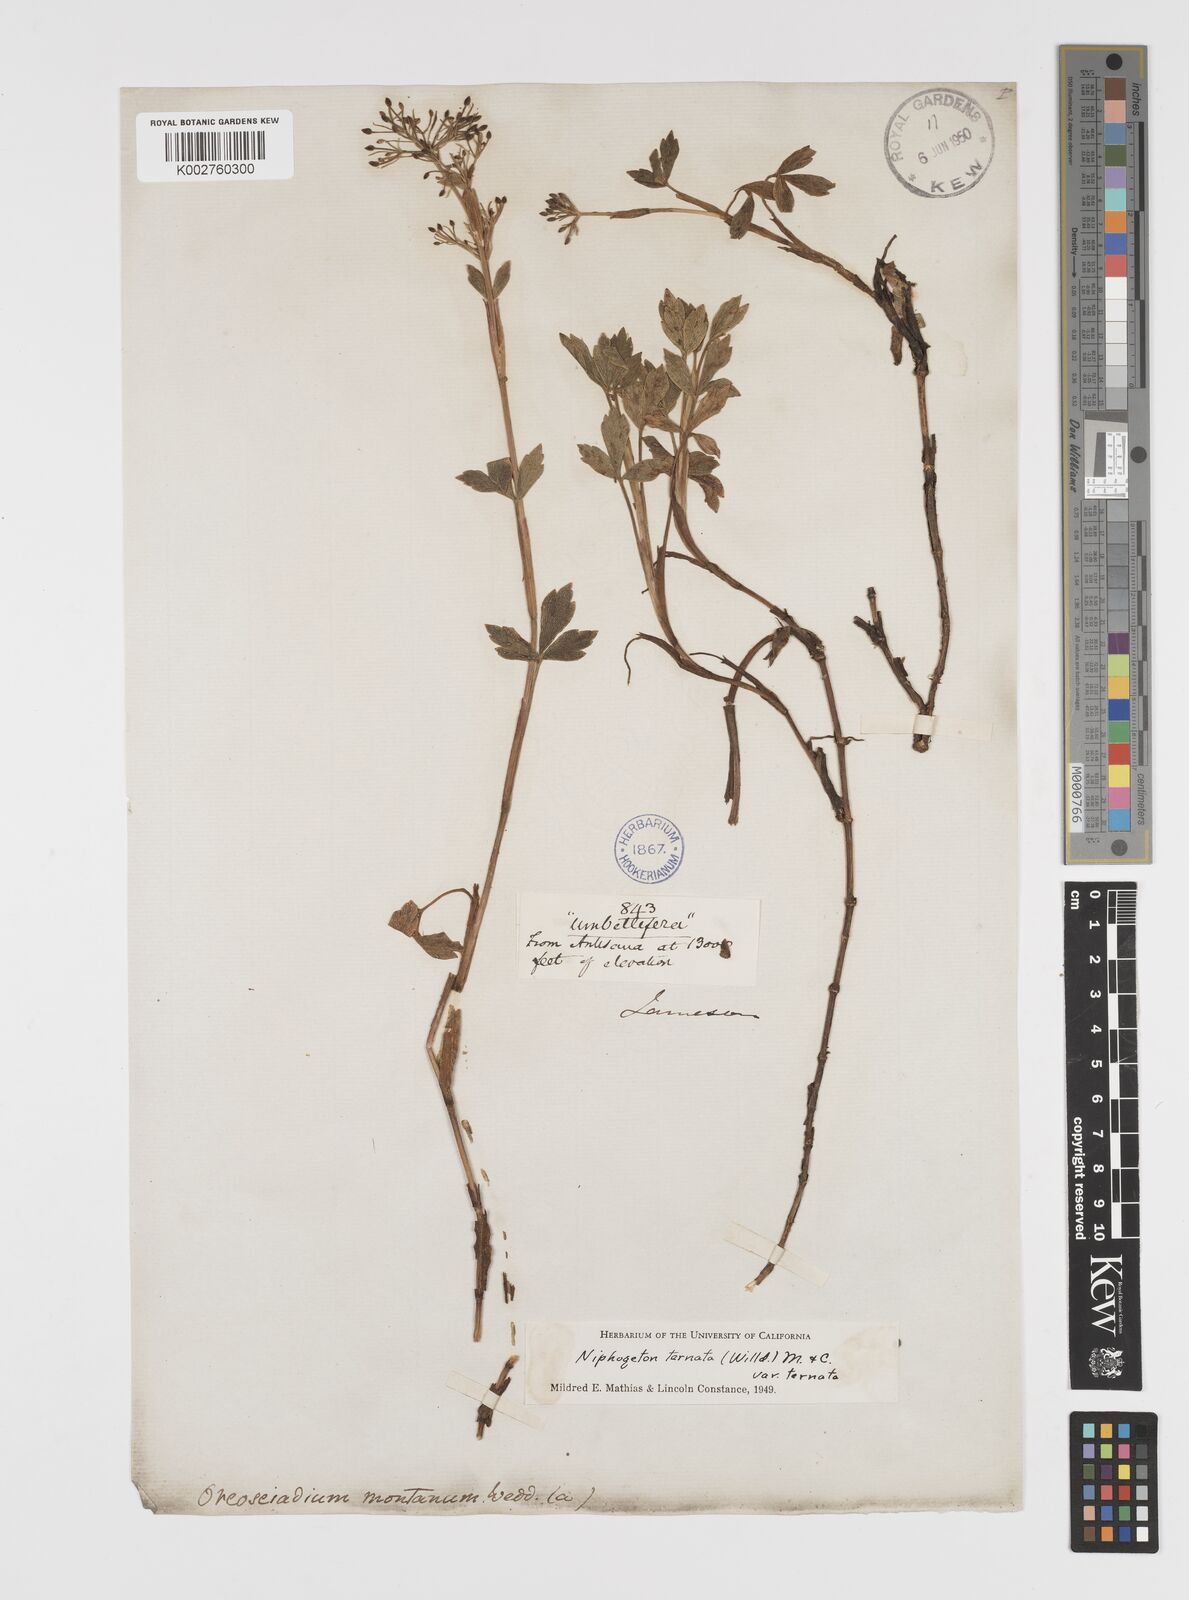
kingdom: Plantae
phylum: Tracheophyta
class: Magnoliopsida
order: Apiales
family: Apiaceae
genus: Niphogeton
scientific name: Niphogeton ternata
